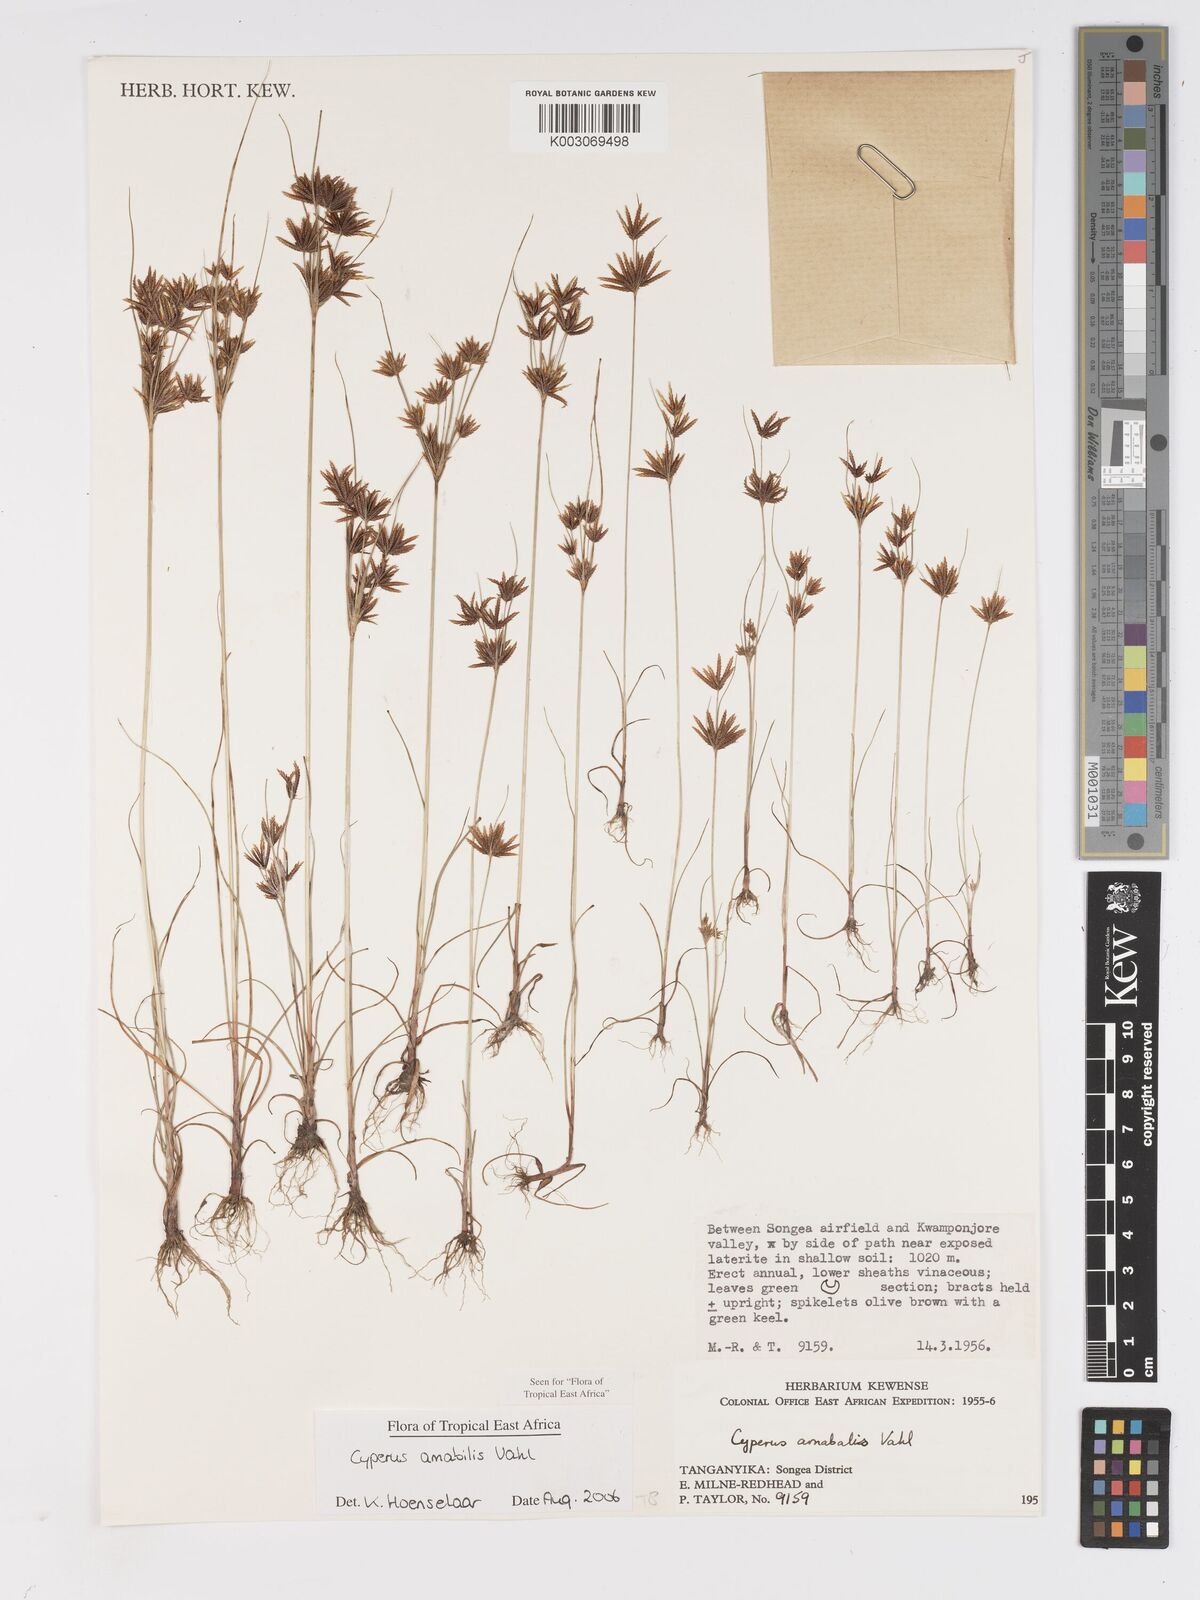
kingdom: Plantae
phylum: Tracheophyta
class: Liliopsida
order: Poales
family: Cyperaceae
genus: Cyperus
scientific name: Cyperus amabilis
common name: Foothill flat sedge
